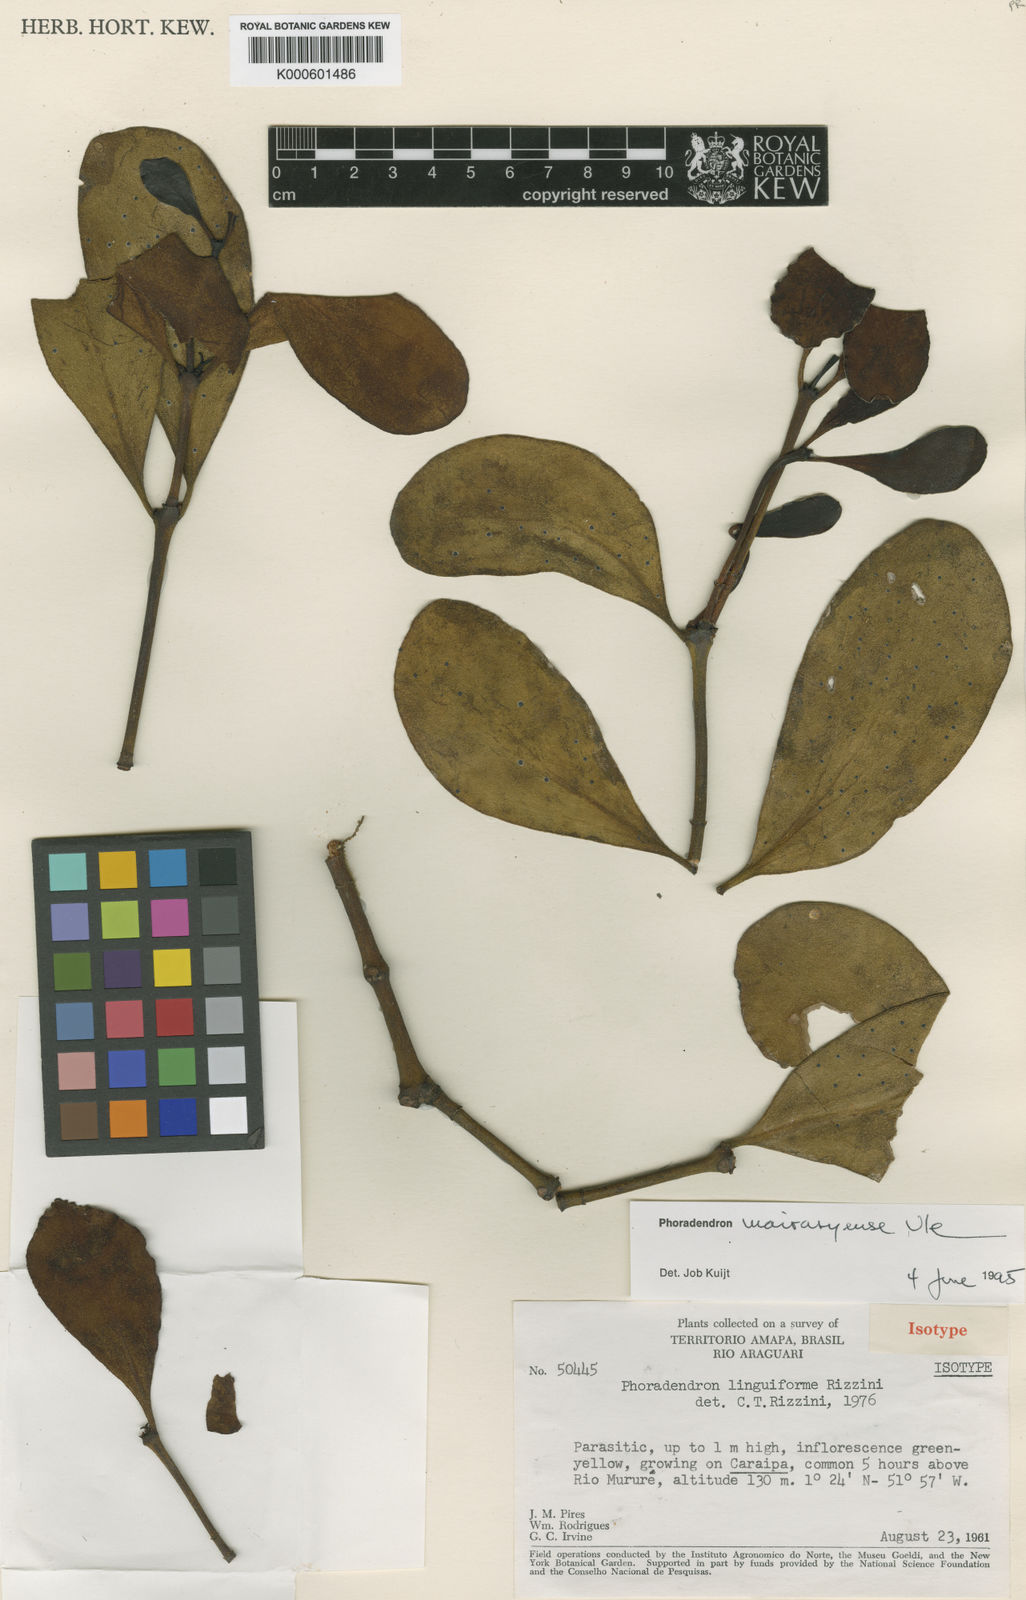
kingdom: Plantae
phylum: Tracheophyta
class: Magnoliopsida
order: Santalales
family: Viscaceae
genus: Phoradendron
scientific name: Phoradendron mairaryense
